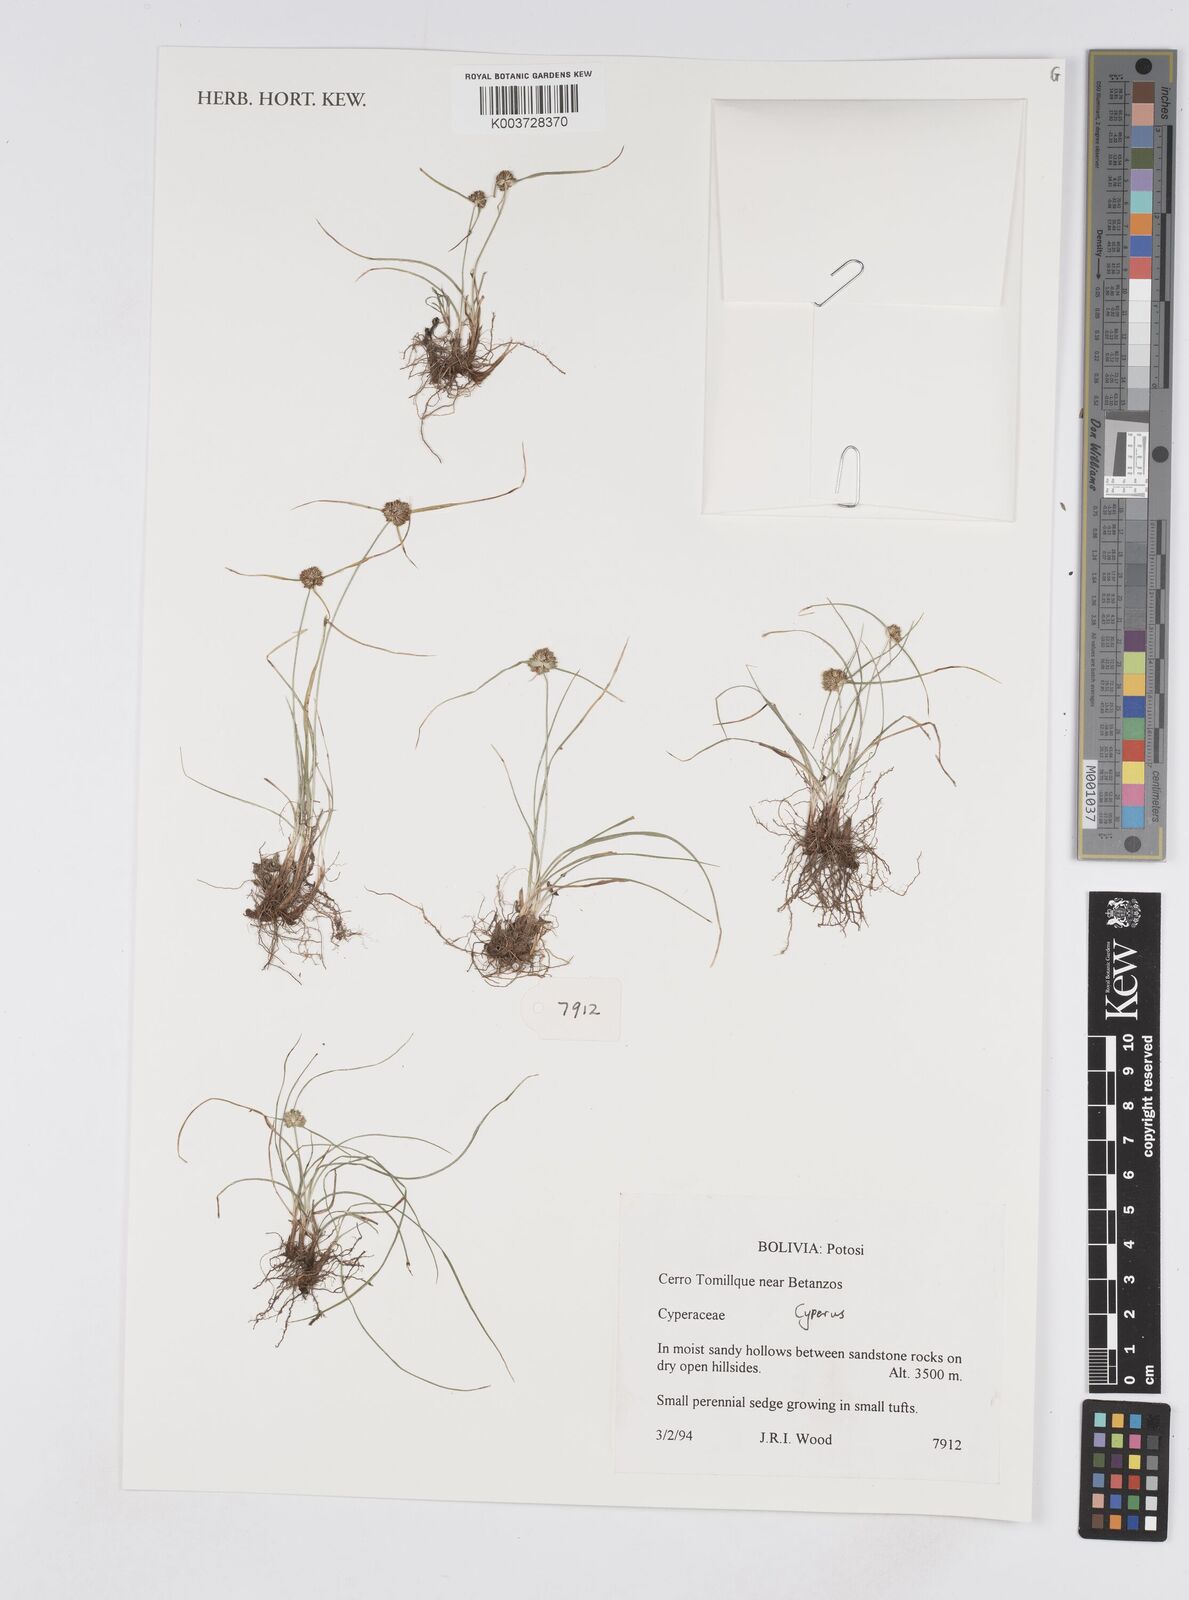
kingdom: Plantae
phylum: Tracheophyta
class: Liliopsida
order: Poales
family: Cyperaceae
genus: Cyperus
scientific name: Cyperus
